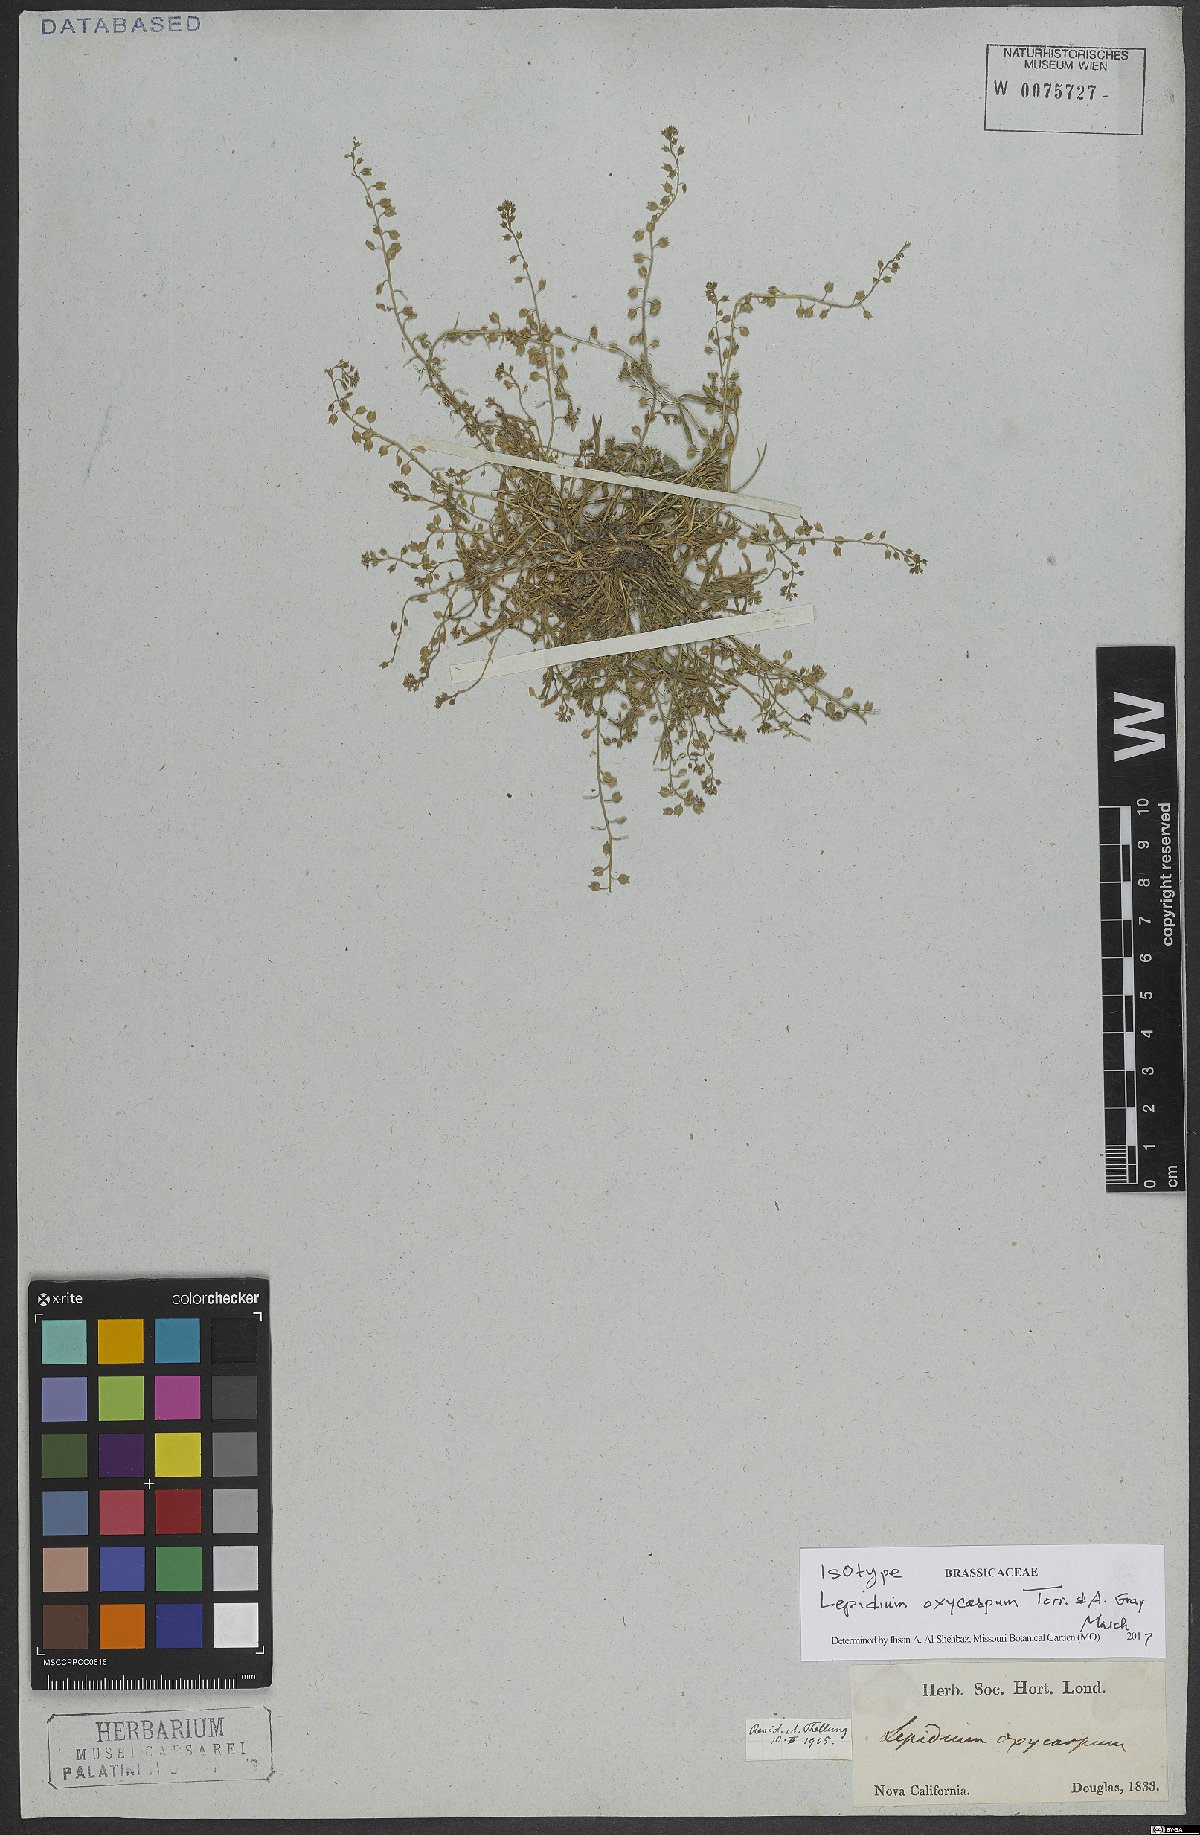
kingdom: Plantae
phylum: Tracheophyta
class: Magnoliopsida
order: Brassicales
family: Brassicaceae
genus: Lepidium
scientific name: Lepidium oxycarpum
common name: Forked peppergrass
